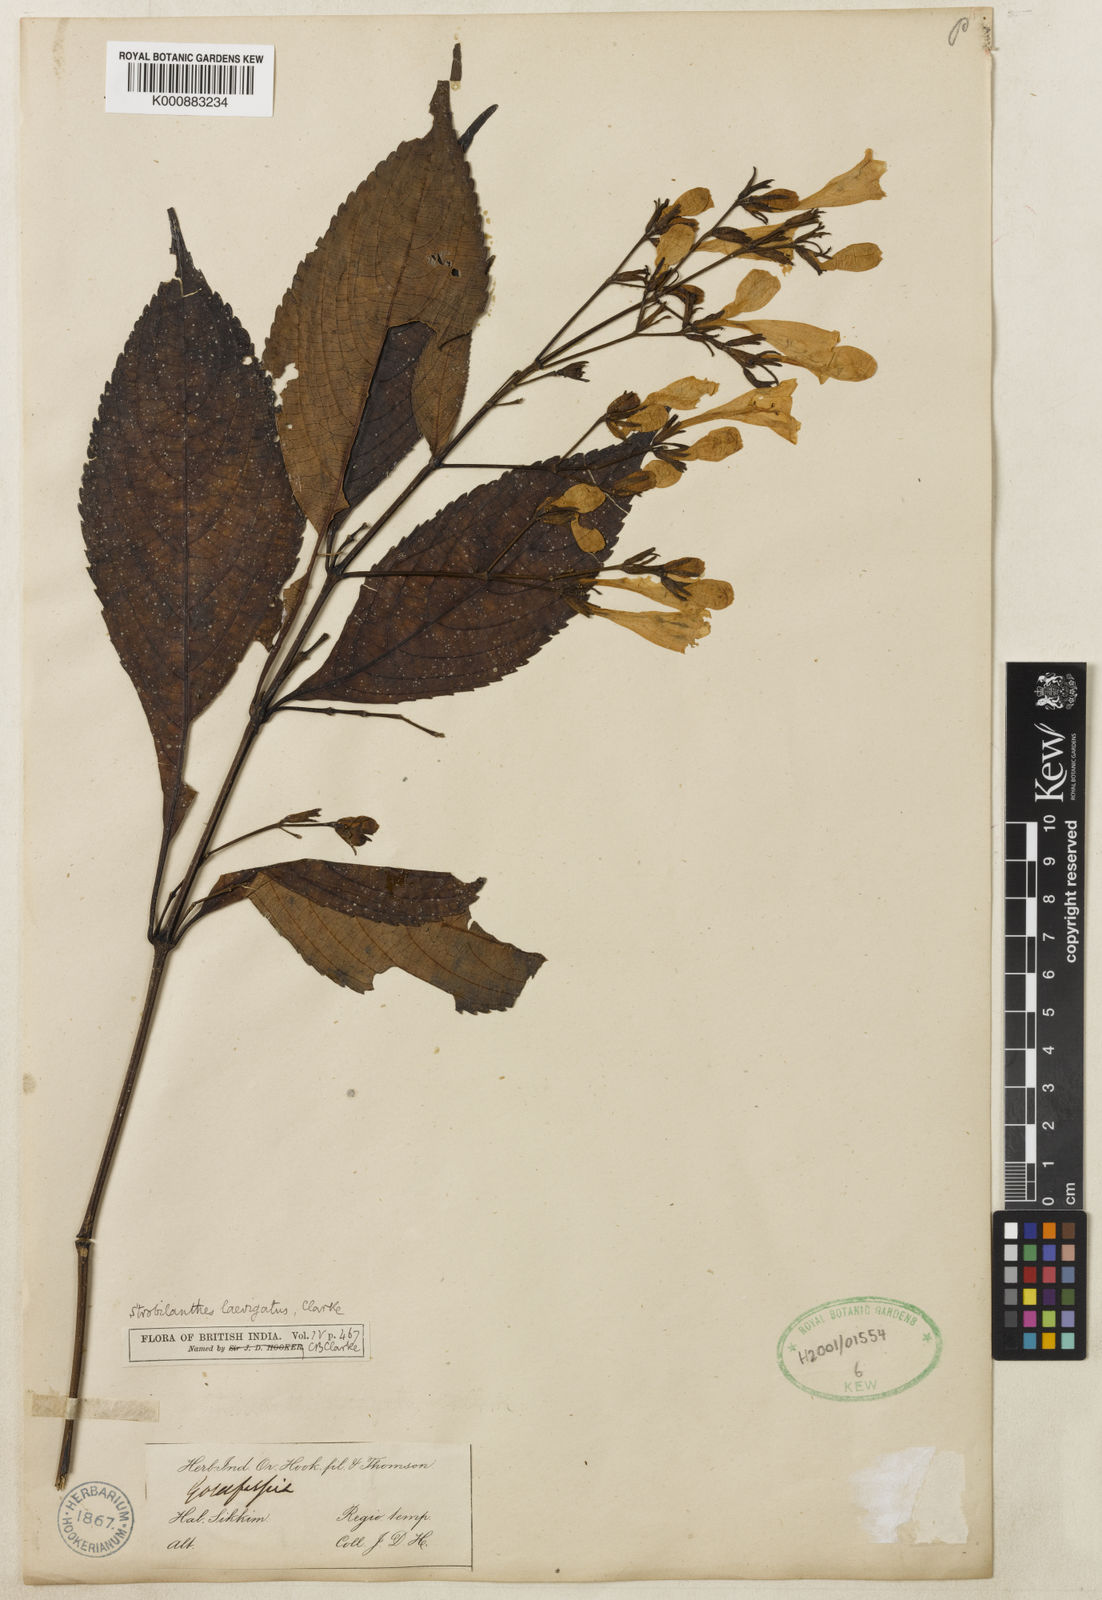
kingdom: Plantae
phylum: Tracheophyta
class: Magnoliopsida
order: Lamiales
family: Acanthaceae
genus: Strobilanthes
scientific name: Strobilanthes hamiltoniana
